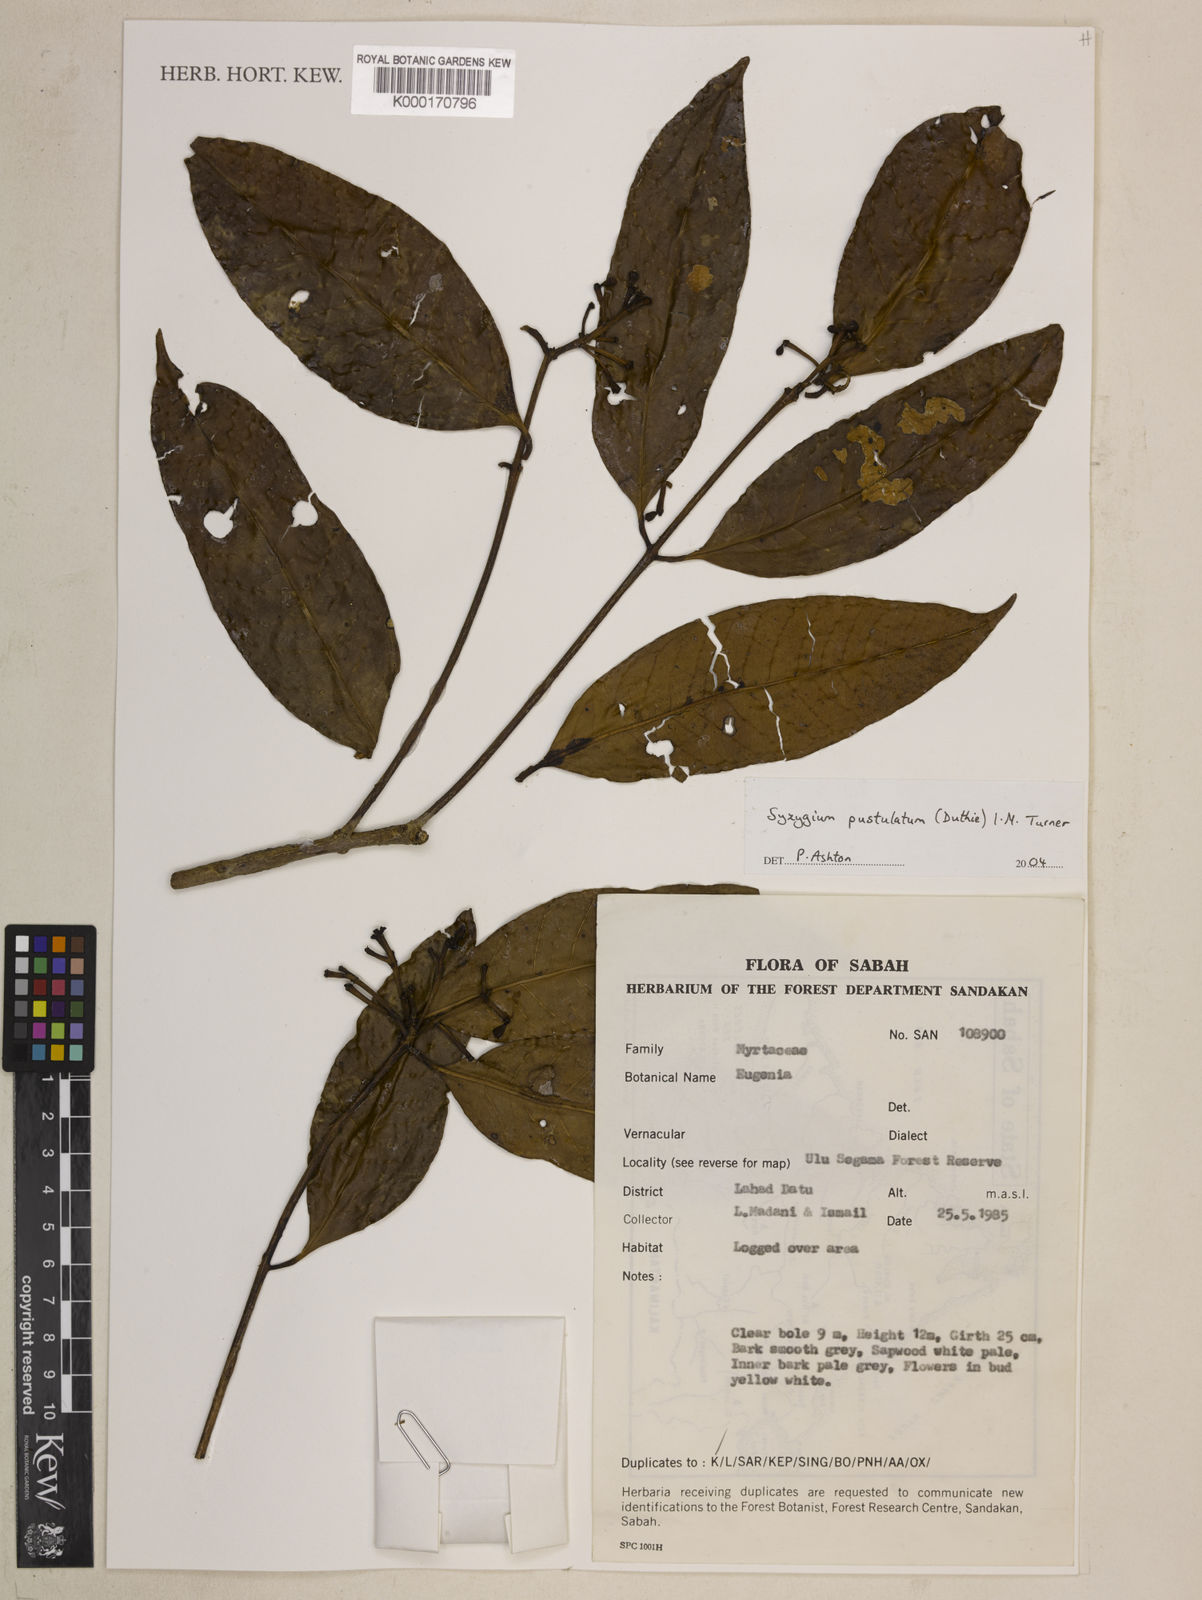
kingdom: Plantae
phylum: Tracheophyta
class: Magnoliopsida
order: Myrtales
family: Myrtaceae
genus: Syzygium
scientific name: Syzygium
